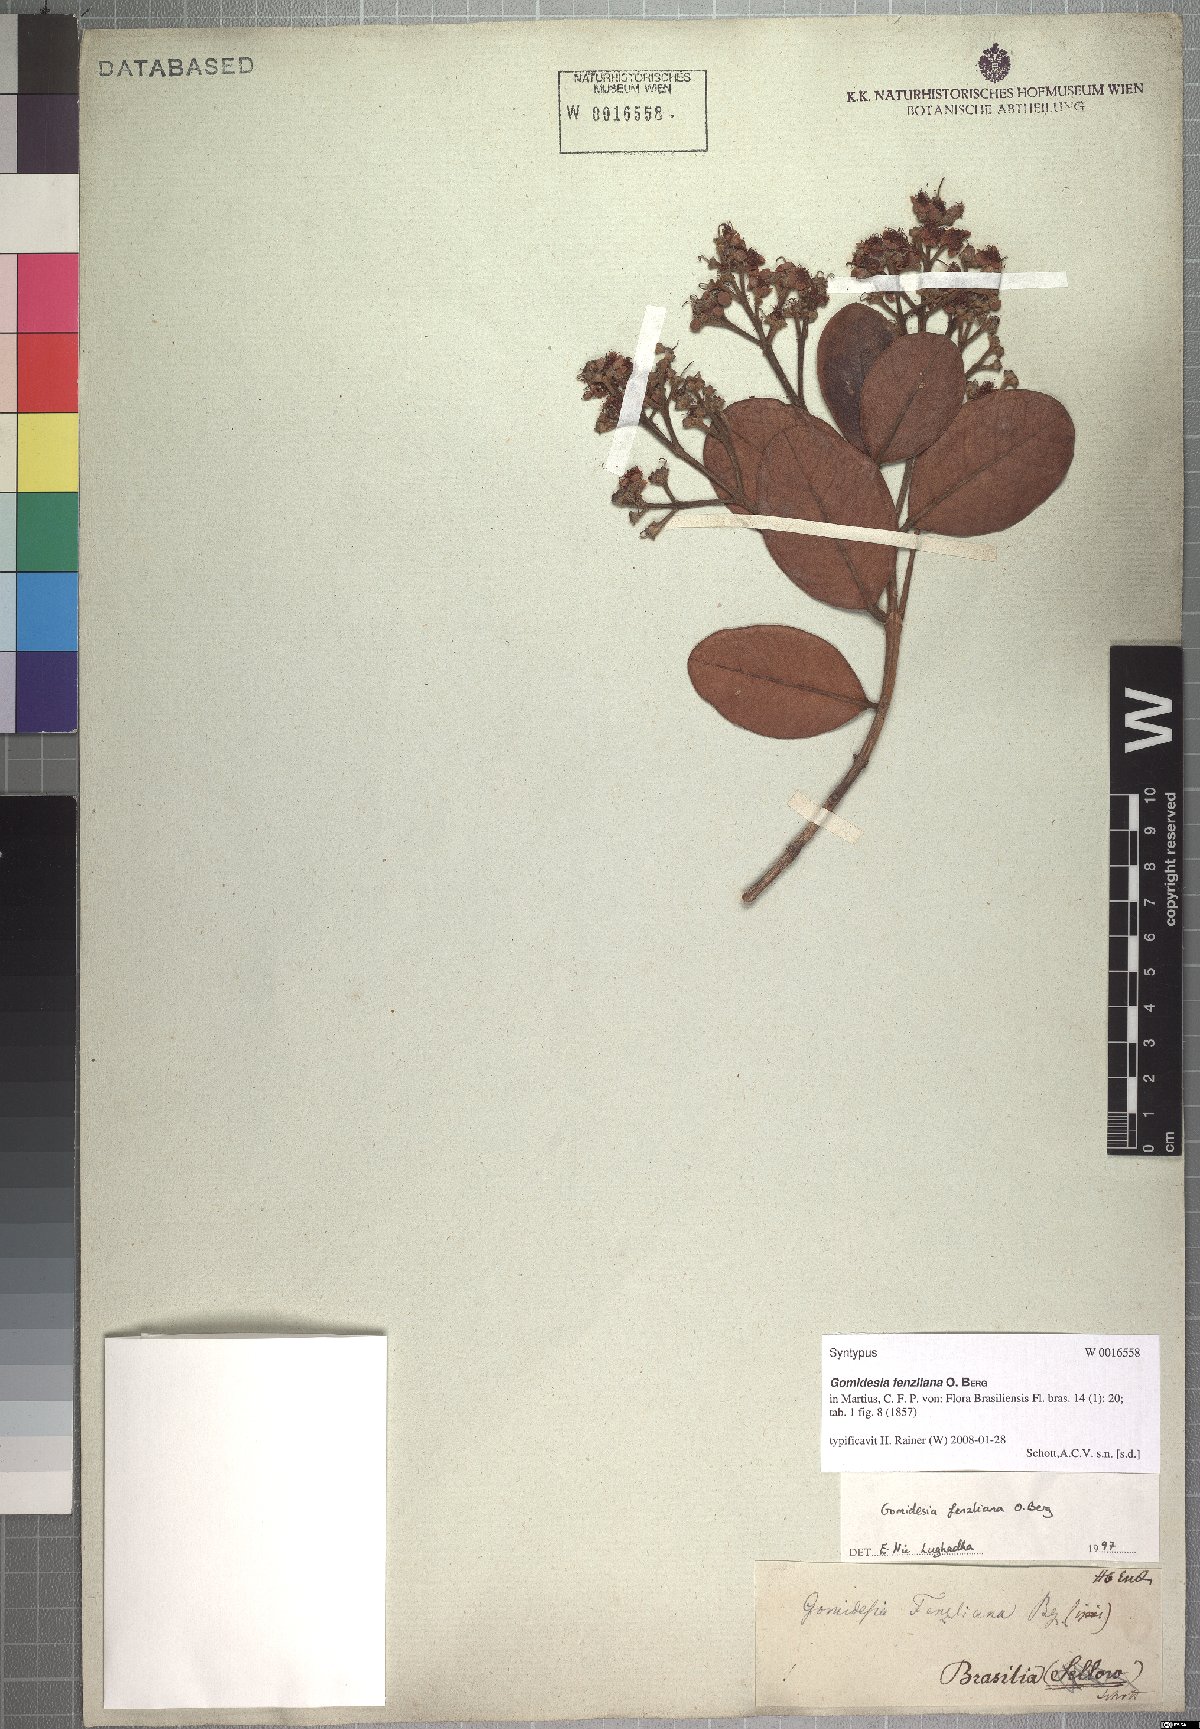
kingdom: Plantae
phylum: Tracheophyta
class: Magnoliopsida
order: Myrtales
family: Myrtaceae
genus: Myrcia
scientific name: Myrcia ilheosensis
